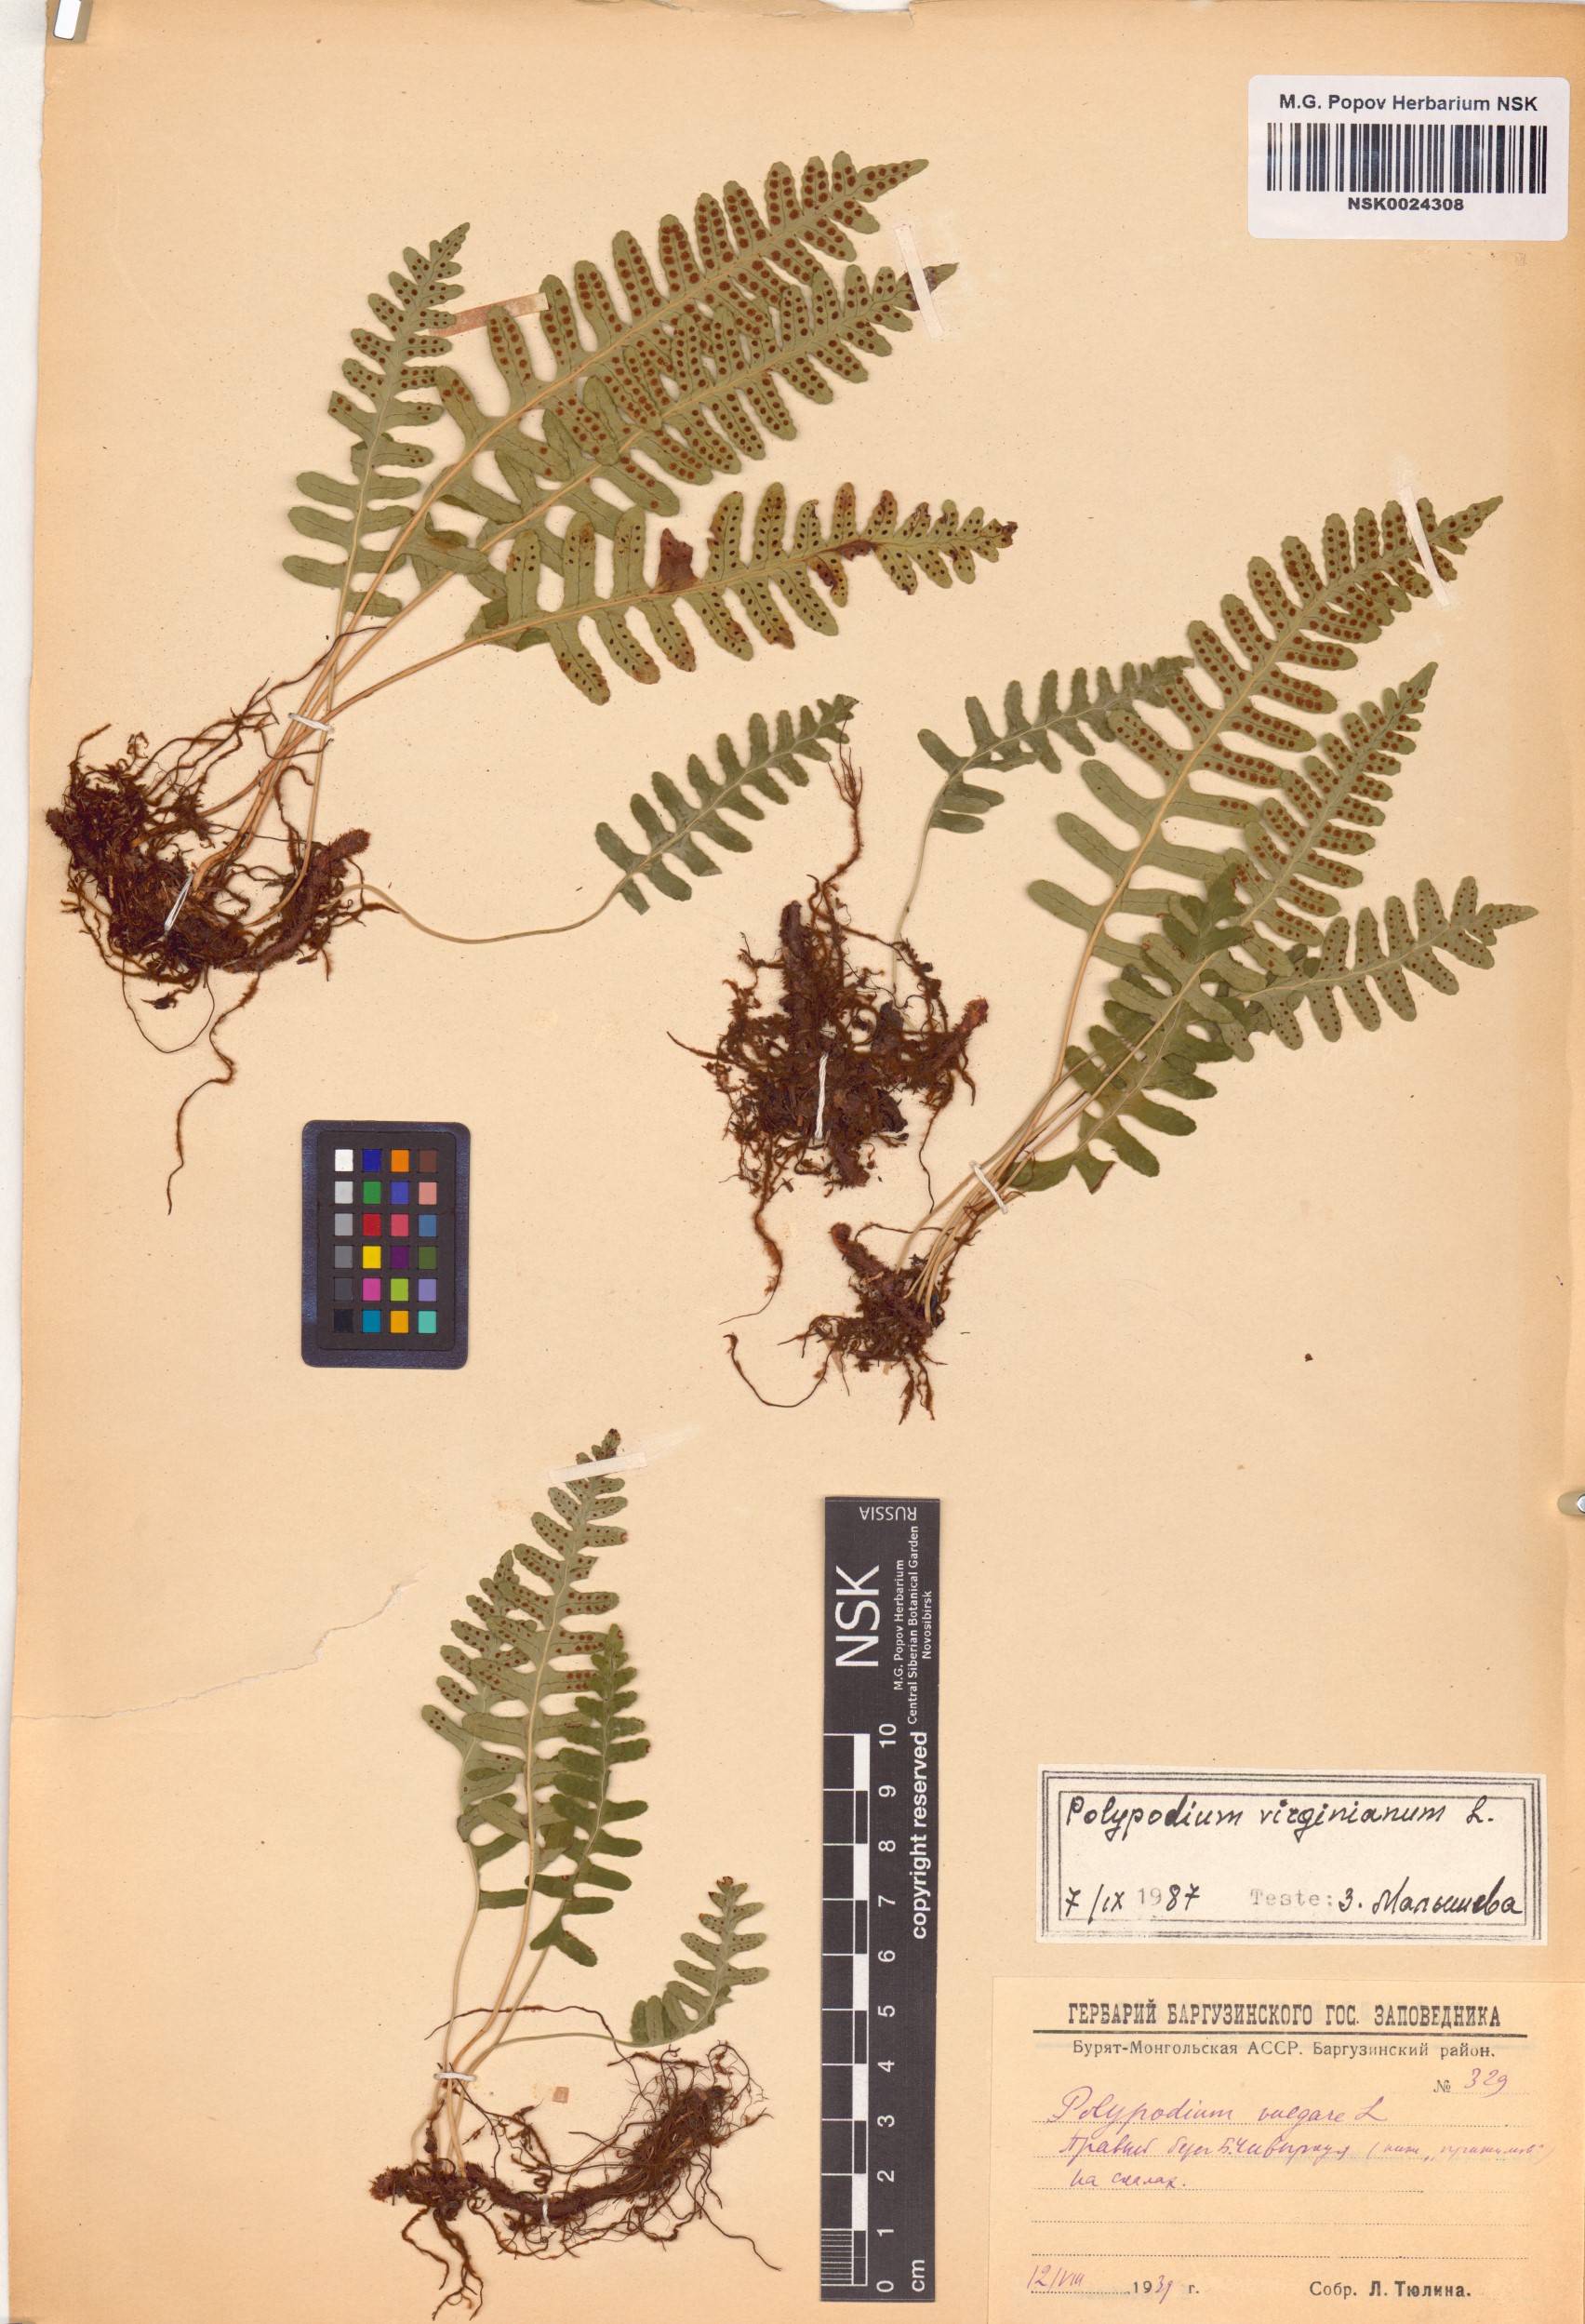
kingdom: Plantae
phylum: Tracheophyta
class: Polypodiopsida
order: Polypodiales
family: Polypodiaceae
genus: Polypodium
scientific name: Polypodium virginianum
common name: American wall fern
